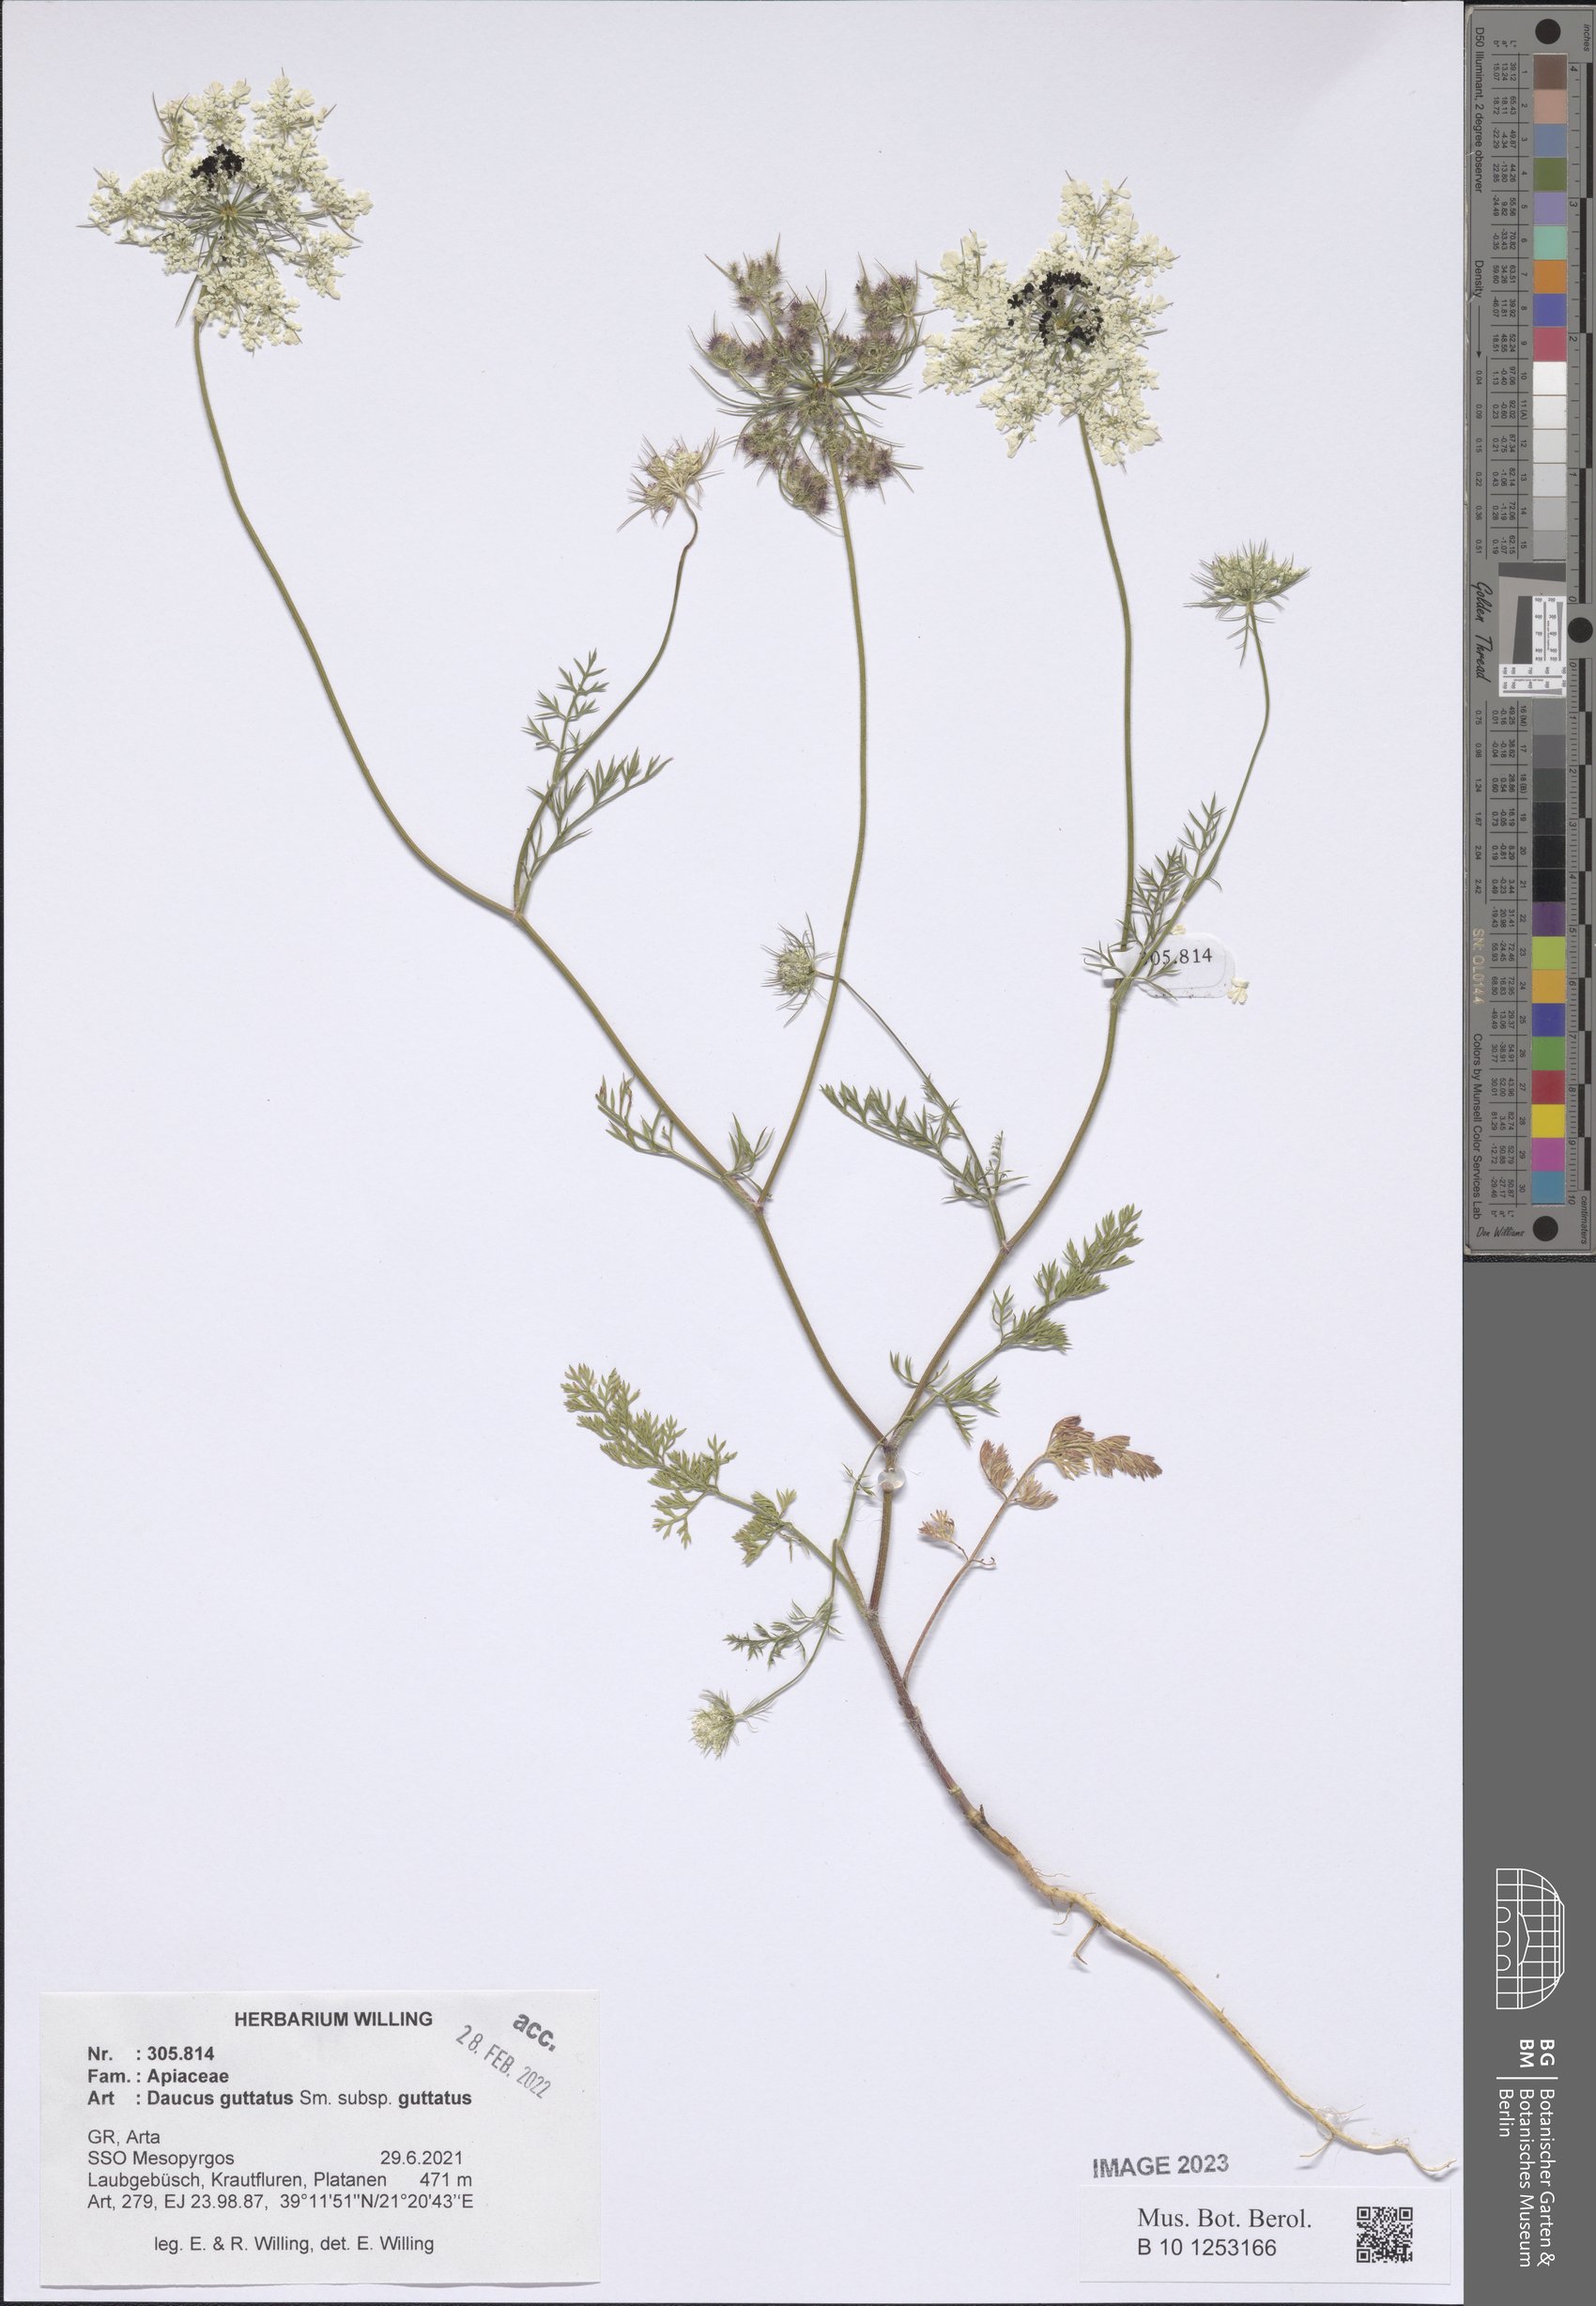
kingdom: Plantae
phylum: Tracheophyta
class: Magnoliopsida
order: Apiales
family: Apiaceae
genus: Daucus
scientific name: Daucus guttatus
